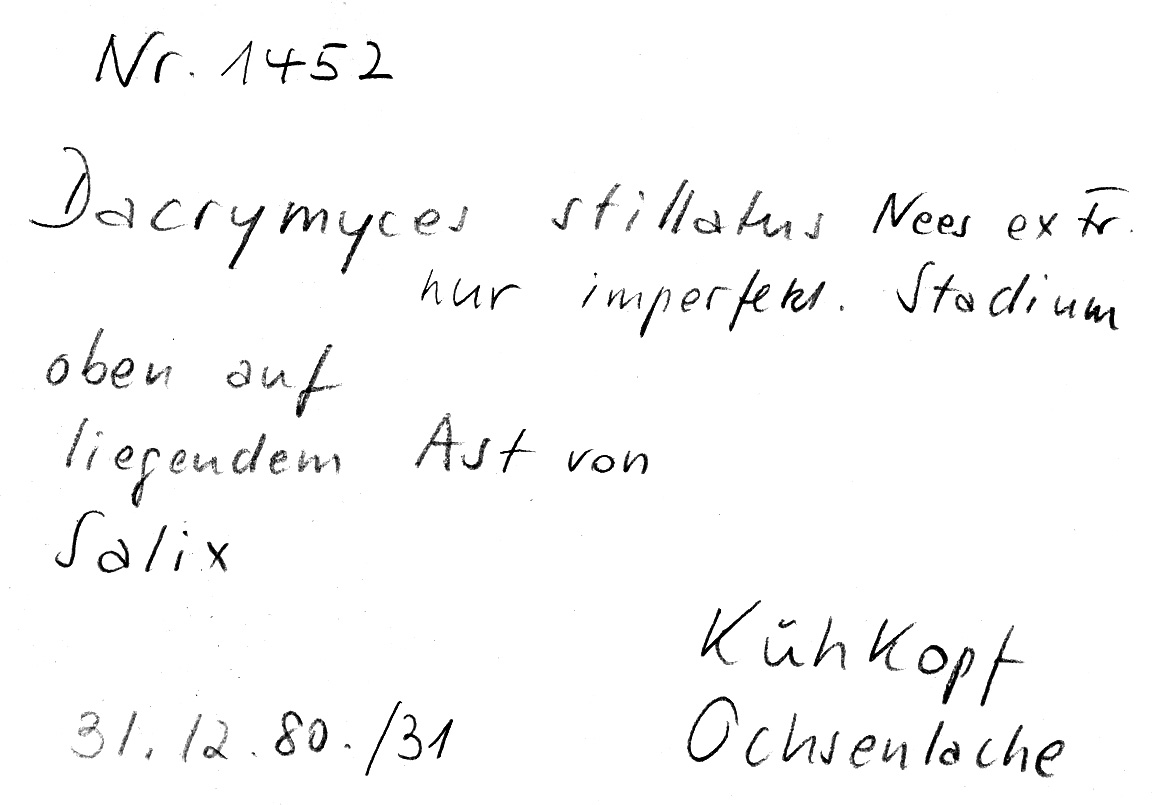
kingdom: Plantae
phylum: Tracheophyta
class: Magnoliopsida
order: Malpighiales
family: Salicaceae
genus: Salix
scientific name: Salix
